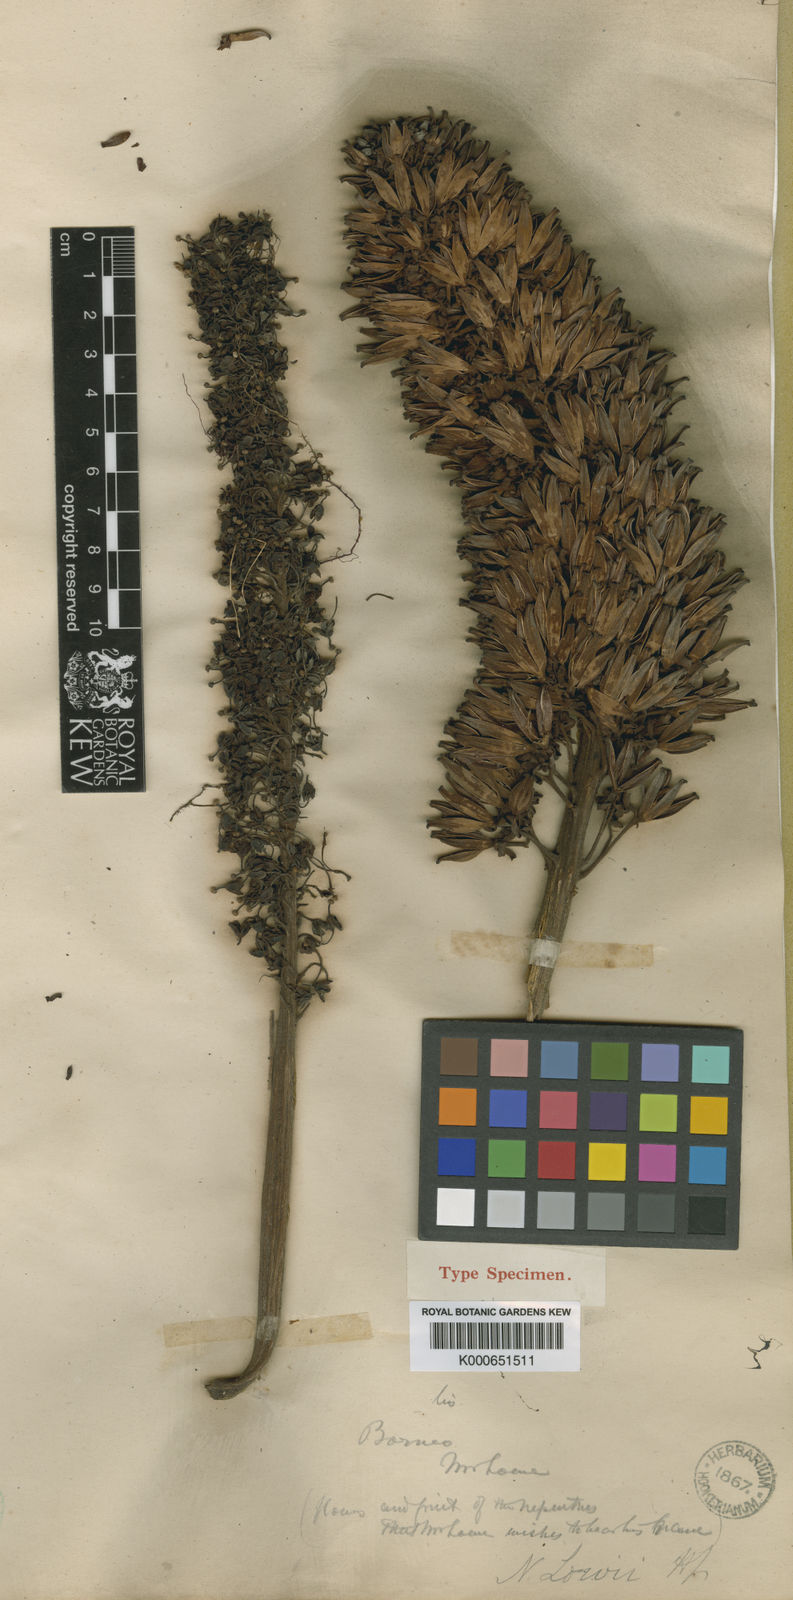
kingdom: Plantae
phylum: Tracheophyta
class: Magnoliopsida
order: Caryophyllales
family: Nepenthaceae
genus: Nepenthes
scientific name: Nepenthes lowii
